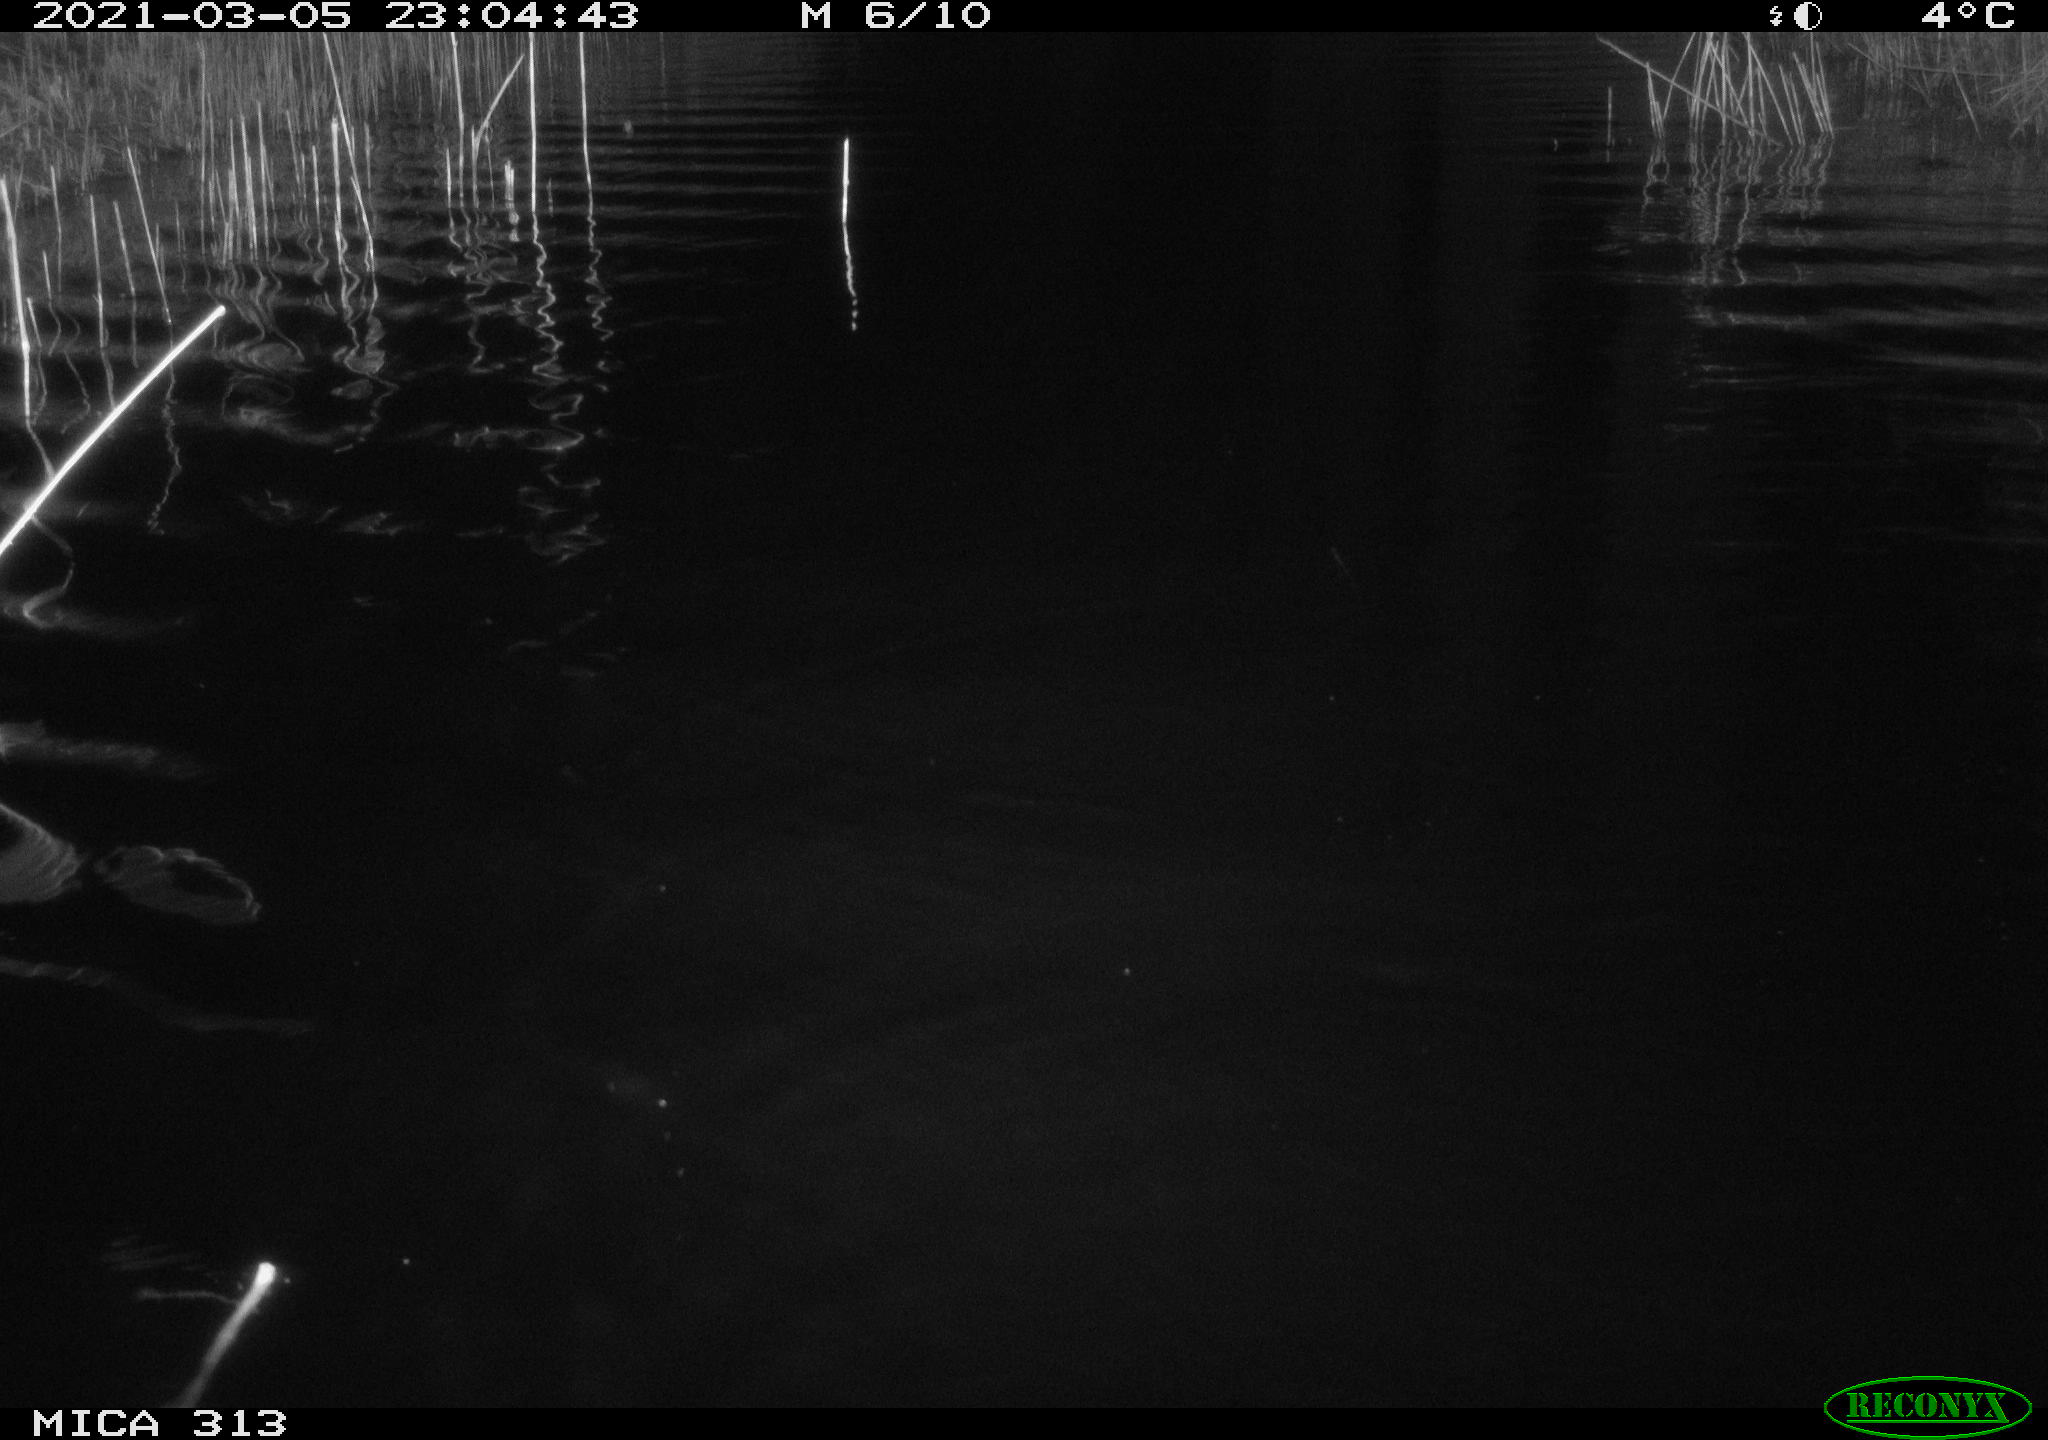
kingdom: Animalia
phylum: Chordata
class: Mammalia
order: Rodentia
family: Cricetidae
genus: Ondatra
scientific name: Ondatra zibethicus
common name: Muskrat
